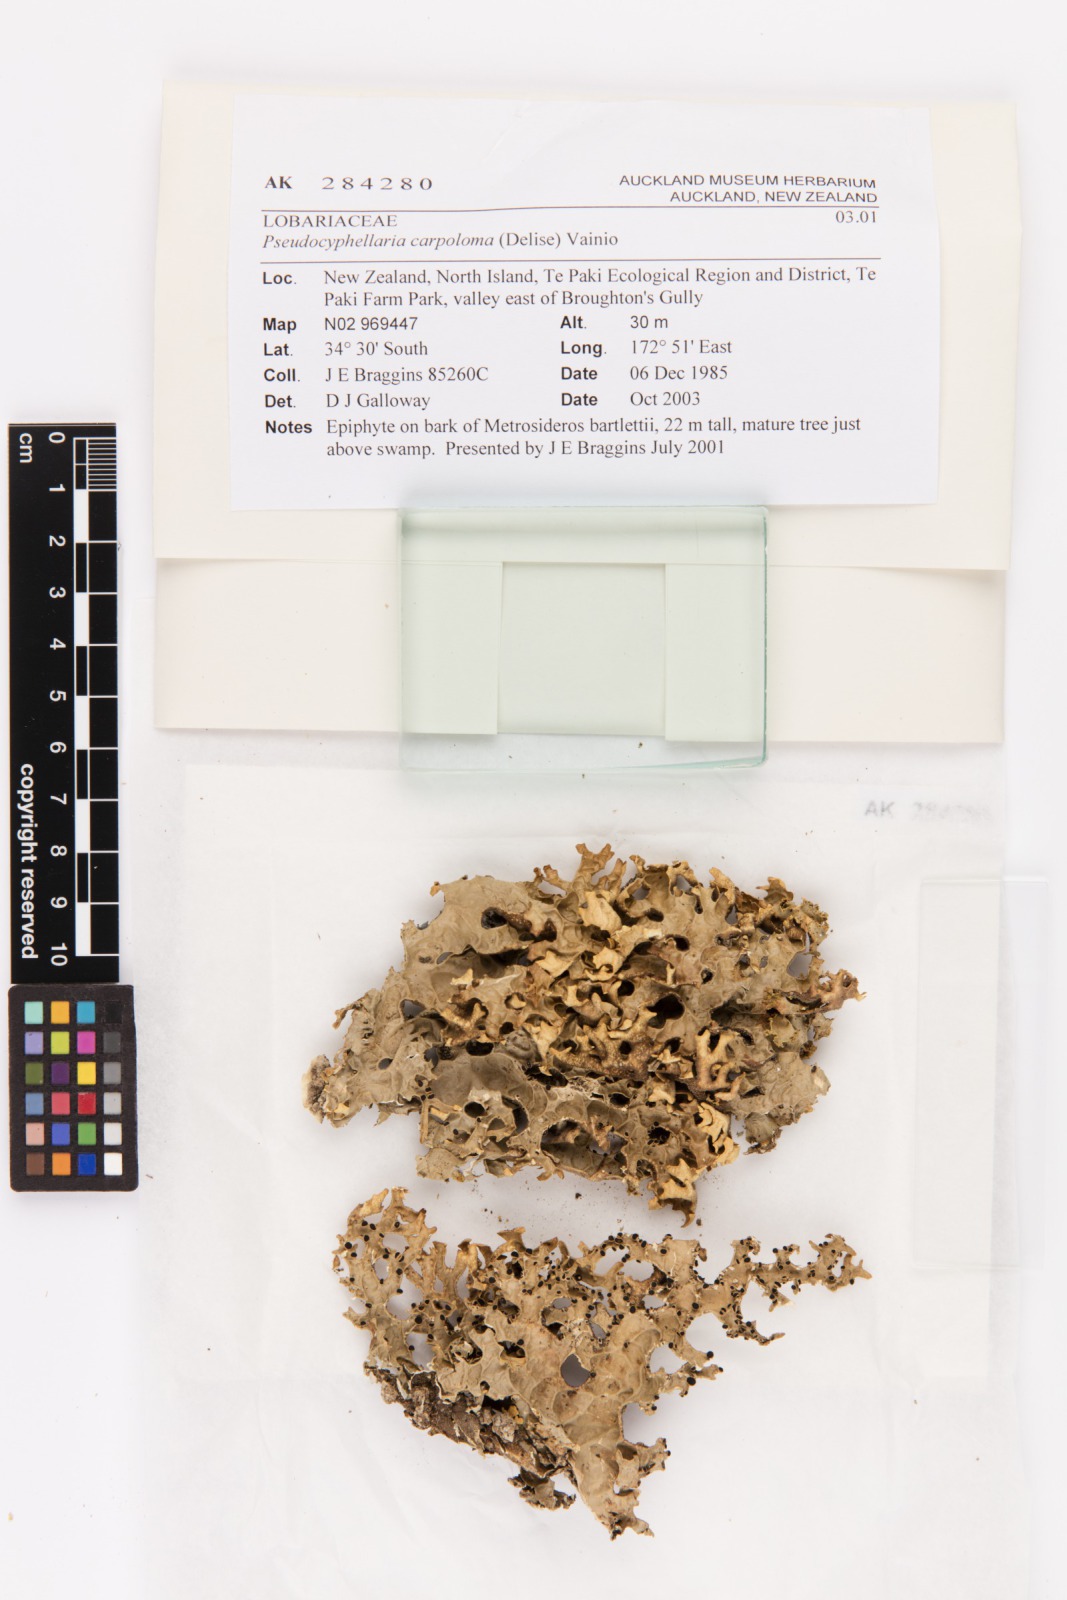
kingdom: Fungi
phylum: Ascomycota
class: Lecanoromycetes
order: Peltigerales
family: Lobariaceae
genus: Pseudocyphellaria
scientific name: Pseudocyphellaria carpoloma
